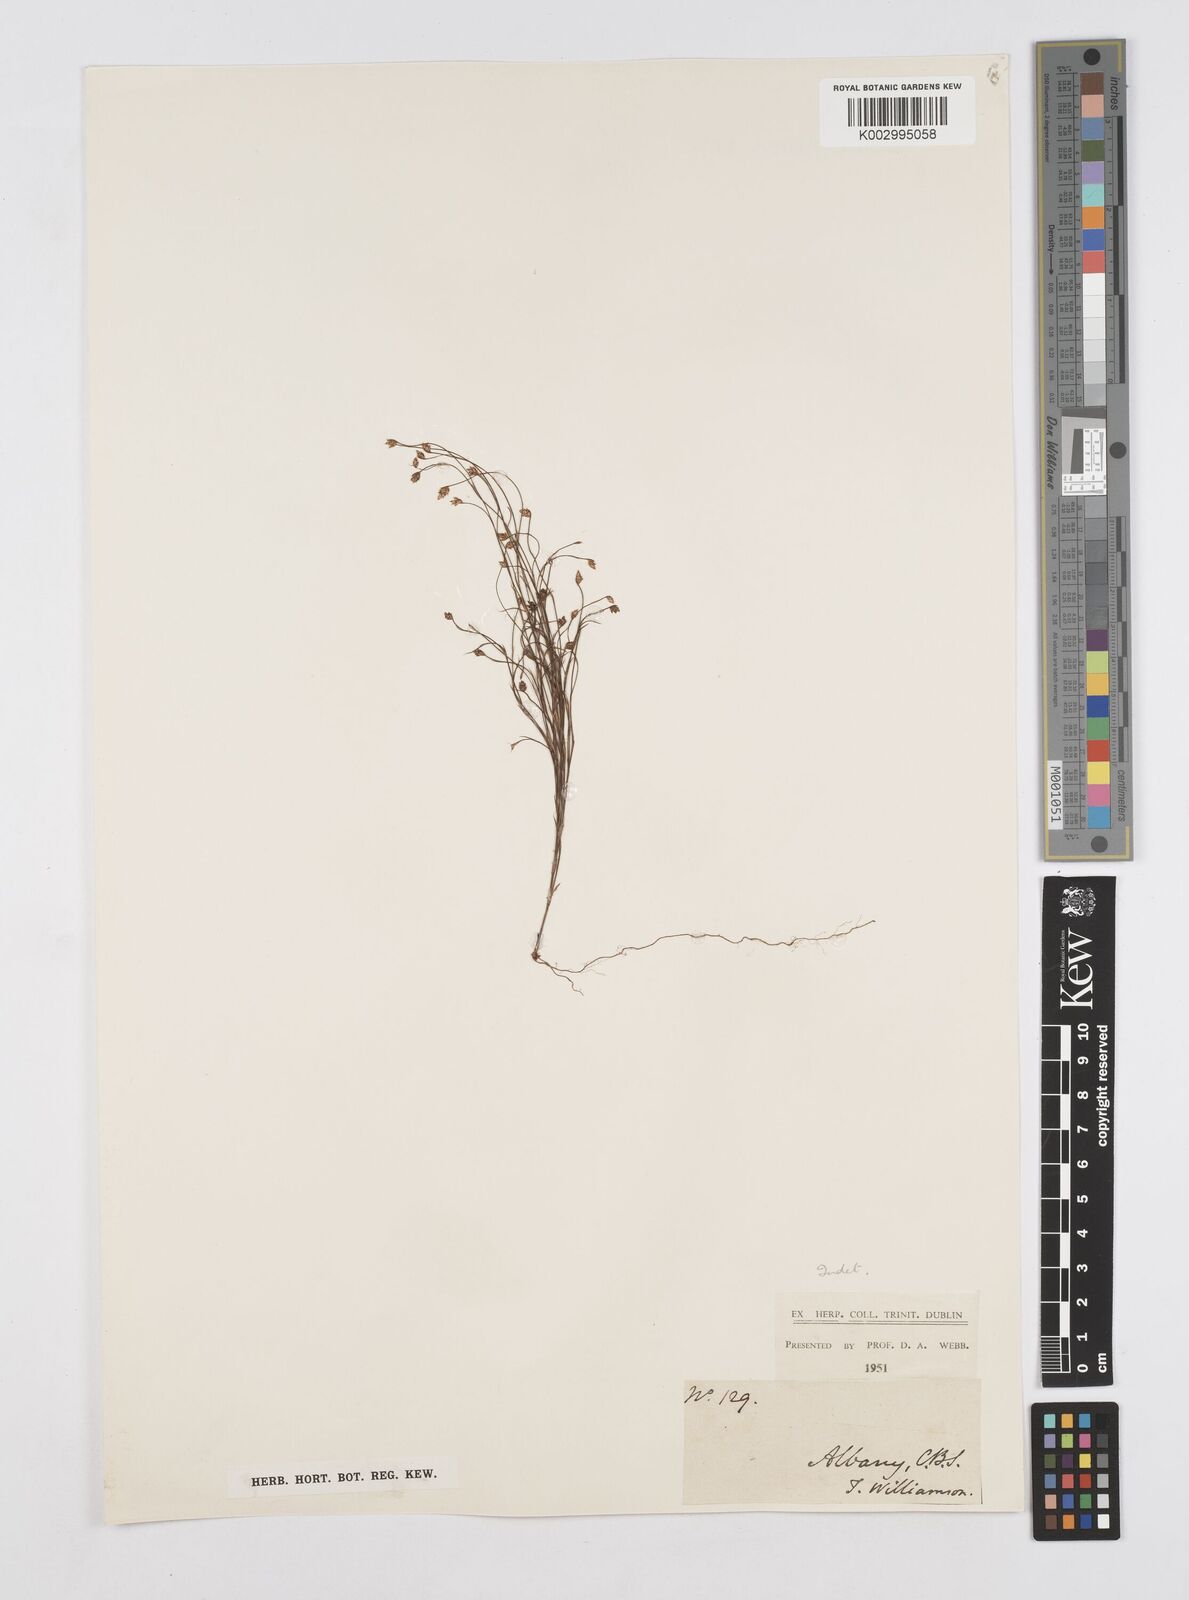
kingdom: Plantae
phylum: Tracheophyta
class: Liliopsida
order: Poales
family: Restionaceae
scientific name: Restionaceae
